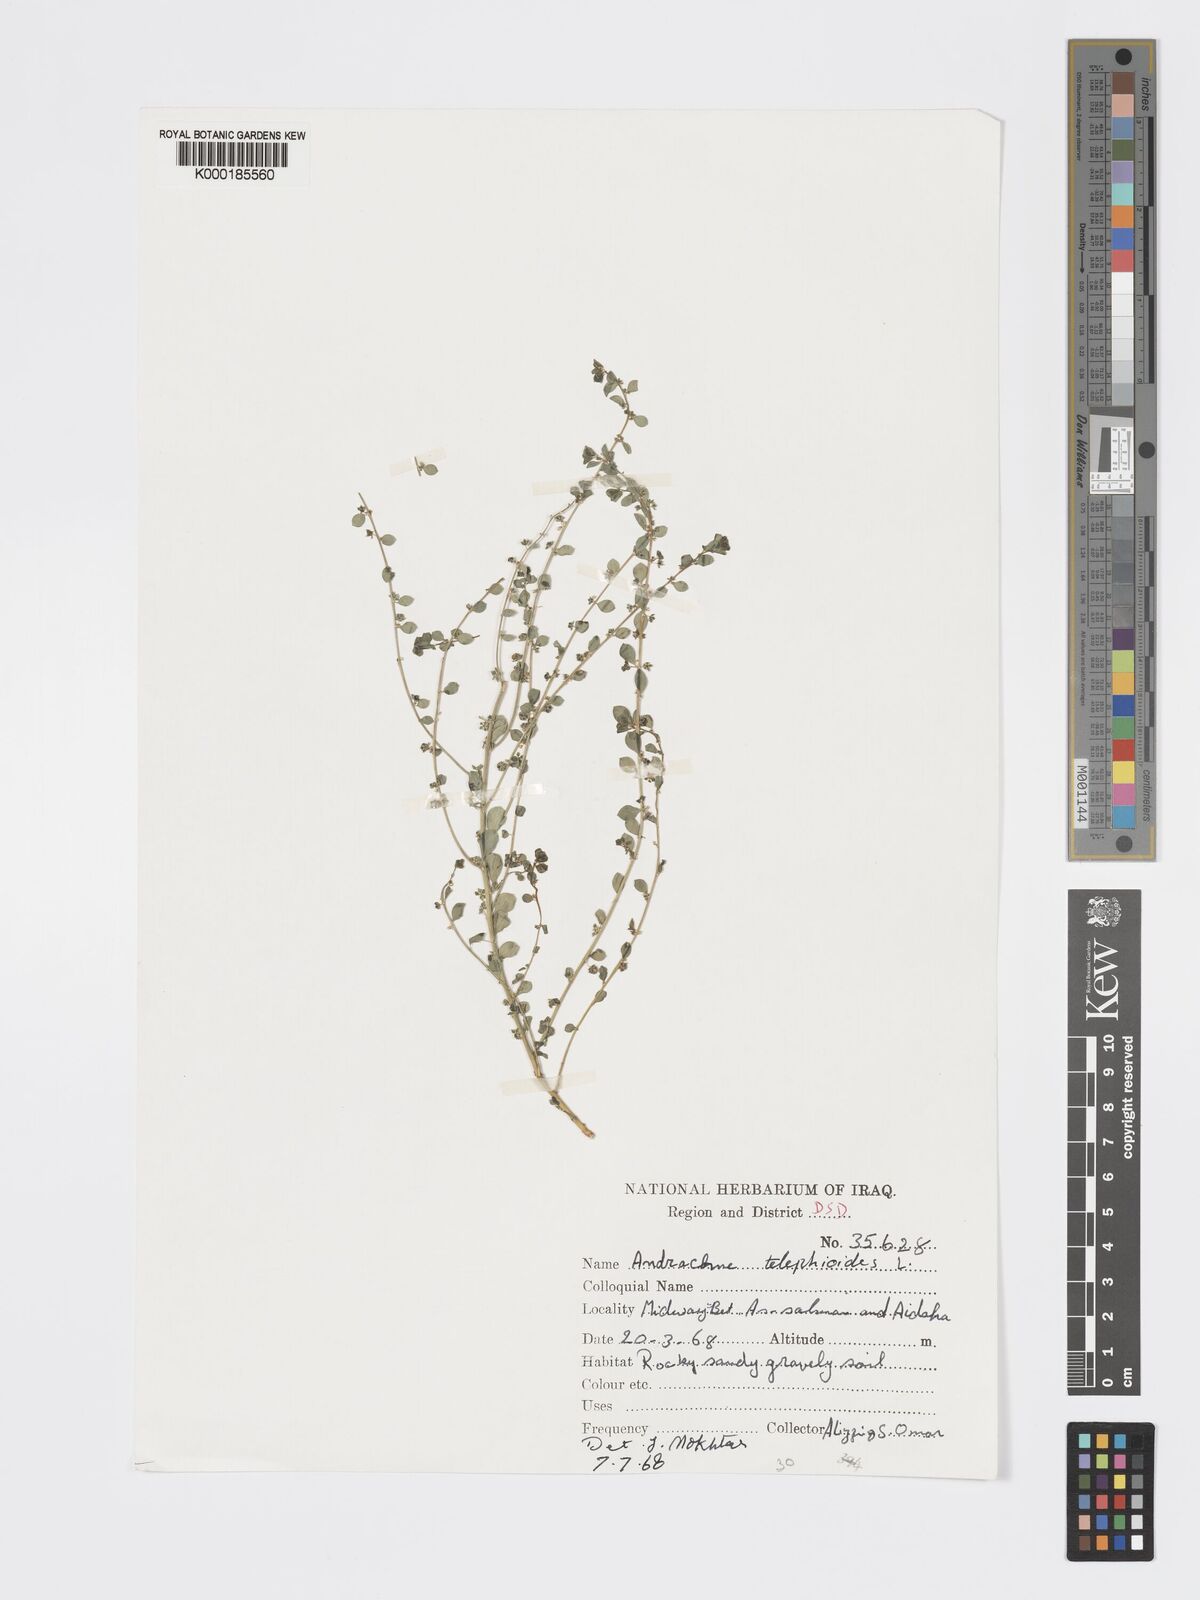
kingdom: Plantae
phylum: Tracheophyta
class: Magnoliopsida
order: Malpighiales
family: Phyllanthaceae
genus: Andrachne
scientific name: Andrachne telephioides
